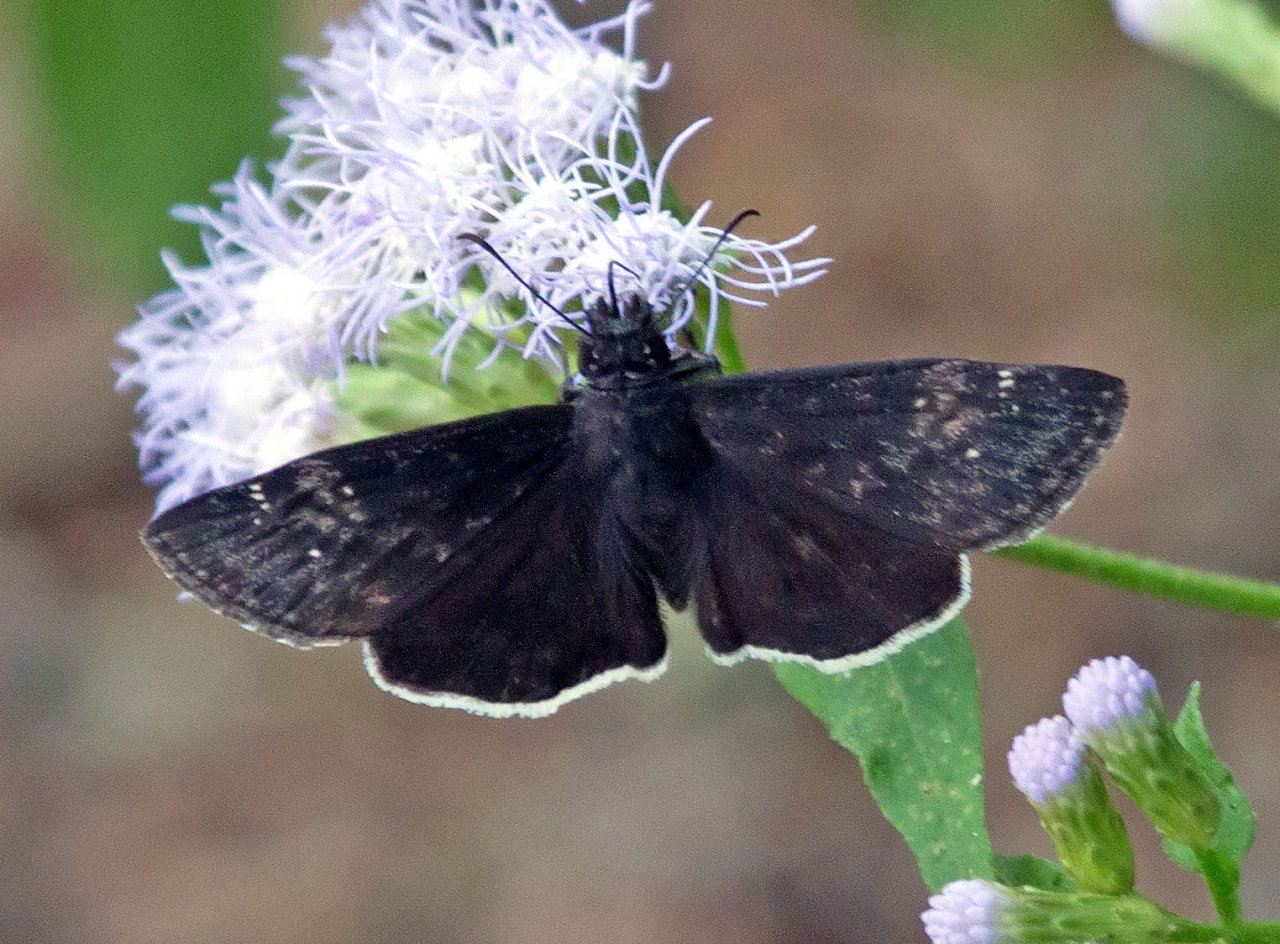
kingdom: Animalia
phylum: Arthropoda
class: Insecta
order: Lepidoptera
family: Hesperiidae
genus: Erynnis
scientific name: Erynnis funeralis
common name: Funereal Duskywing
